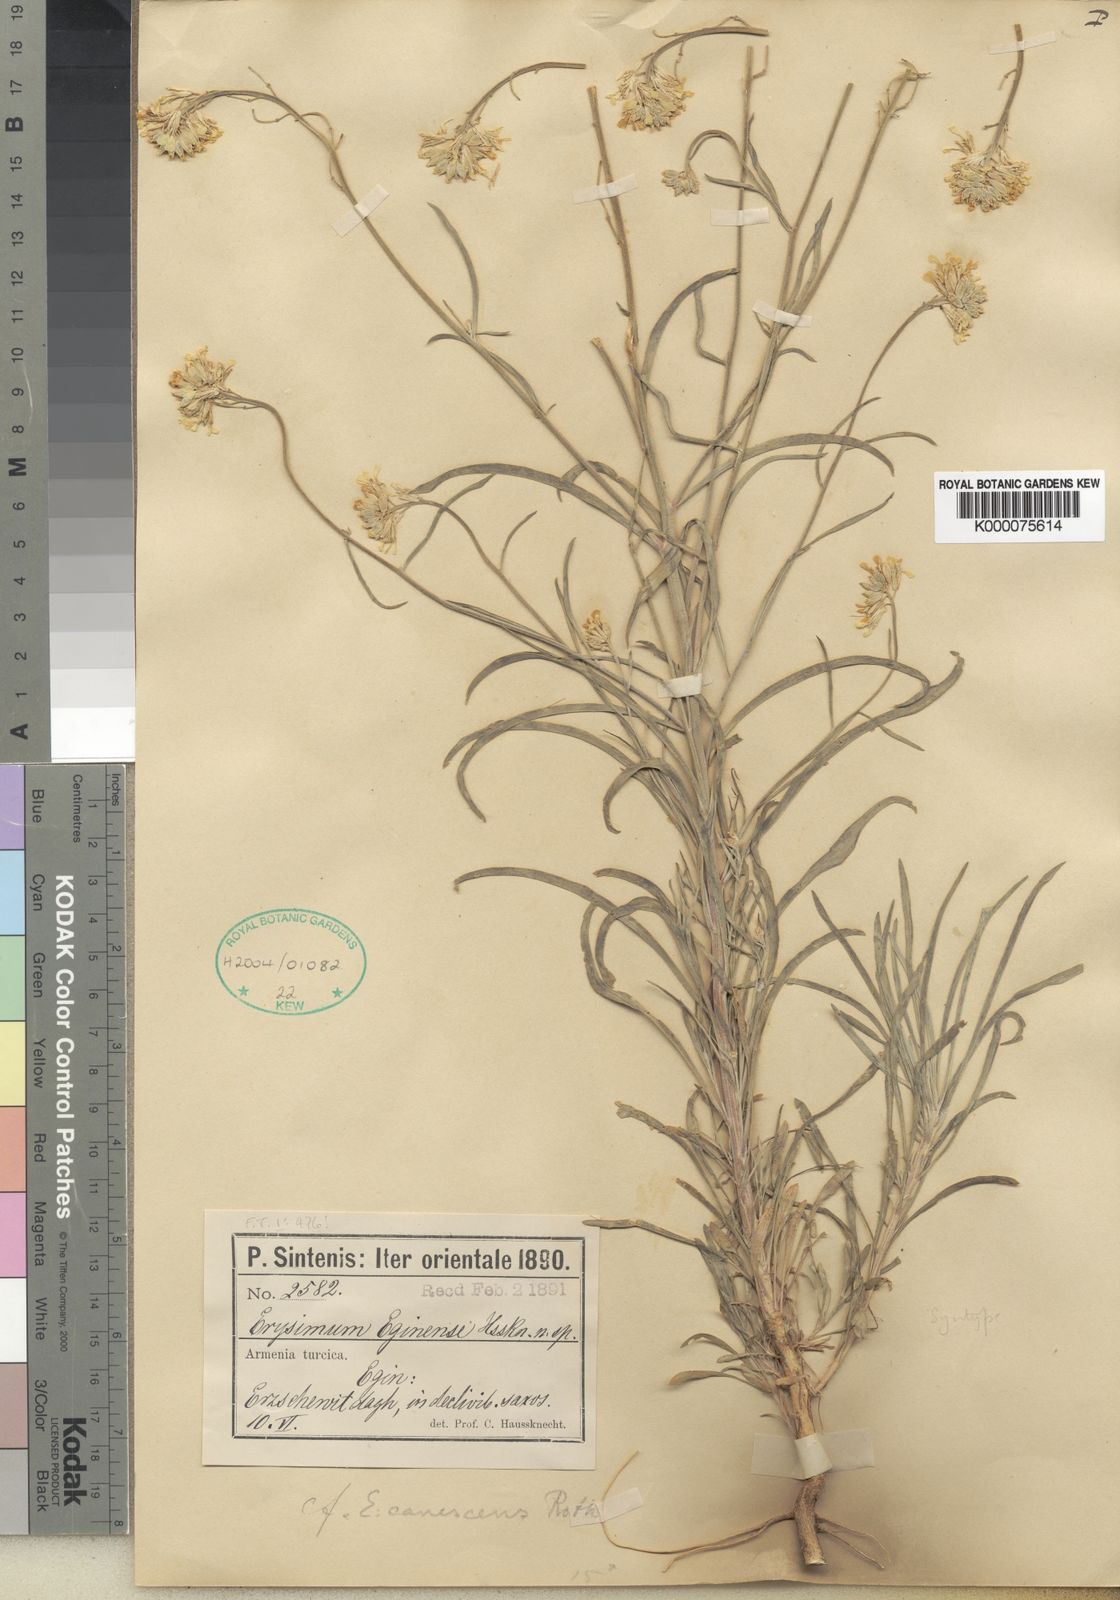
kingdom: Plantae
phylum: Tracheophyta
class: Magnoliopsida
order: Brassicales
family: Brassicaceae
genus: Erysimum
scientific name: Erysimum smyrnaeum
